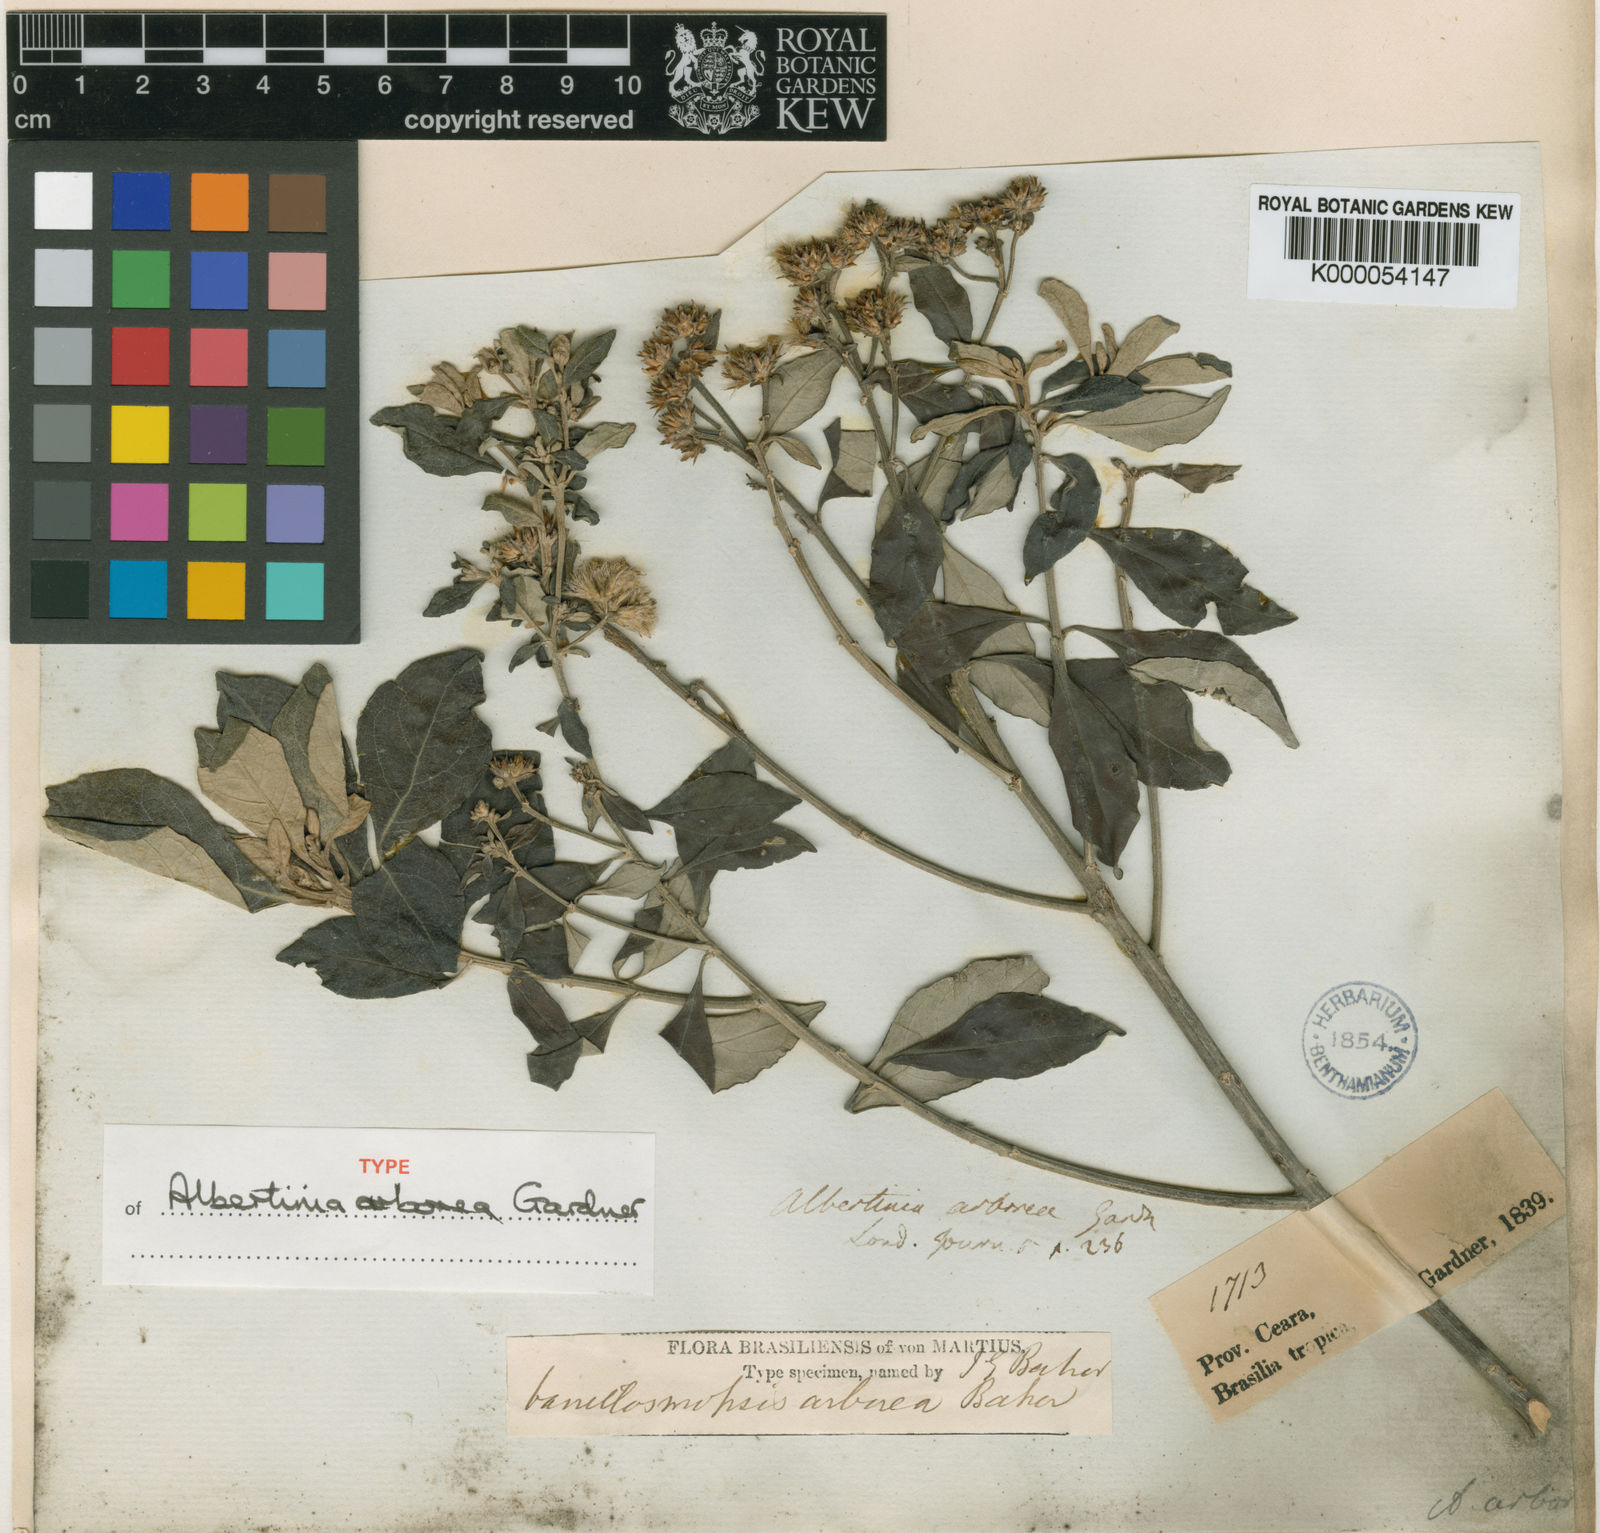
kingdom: Plantae
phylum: Tracheophyta
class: Magnoliopsida
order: Asterales
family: Asteraceae
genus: Eremanthus
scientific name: Eremanthus arboreus
